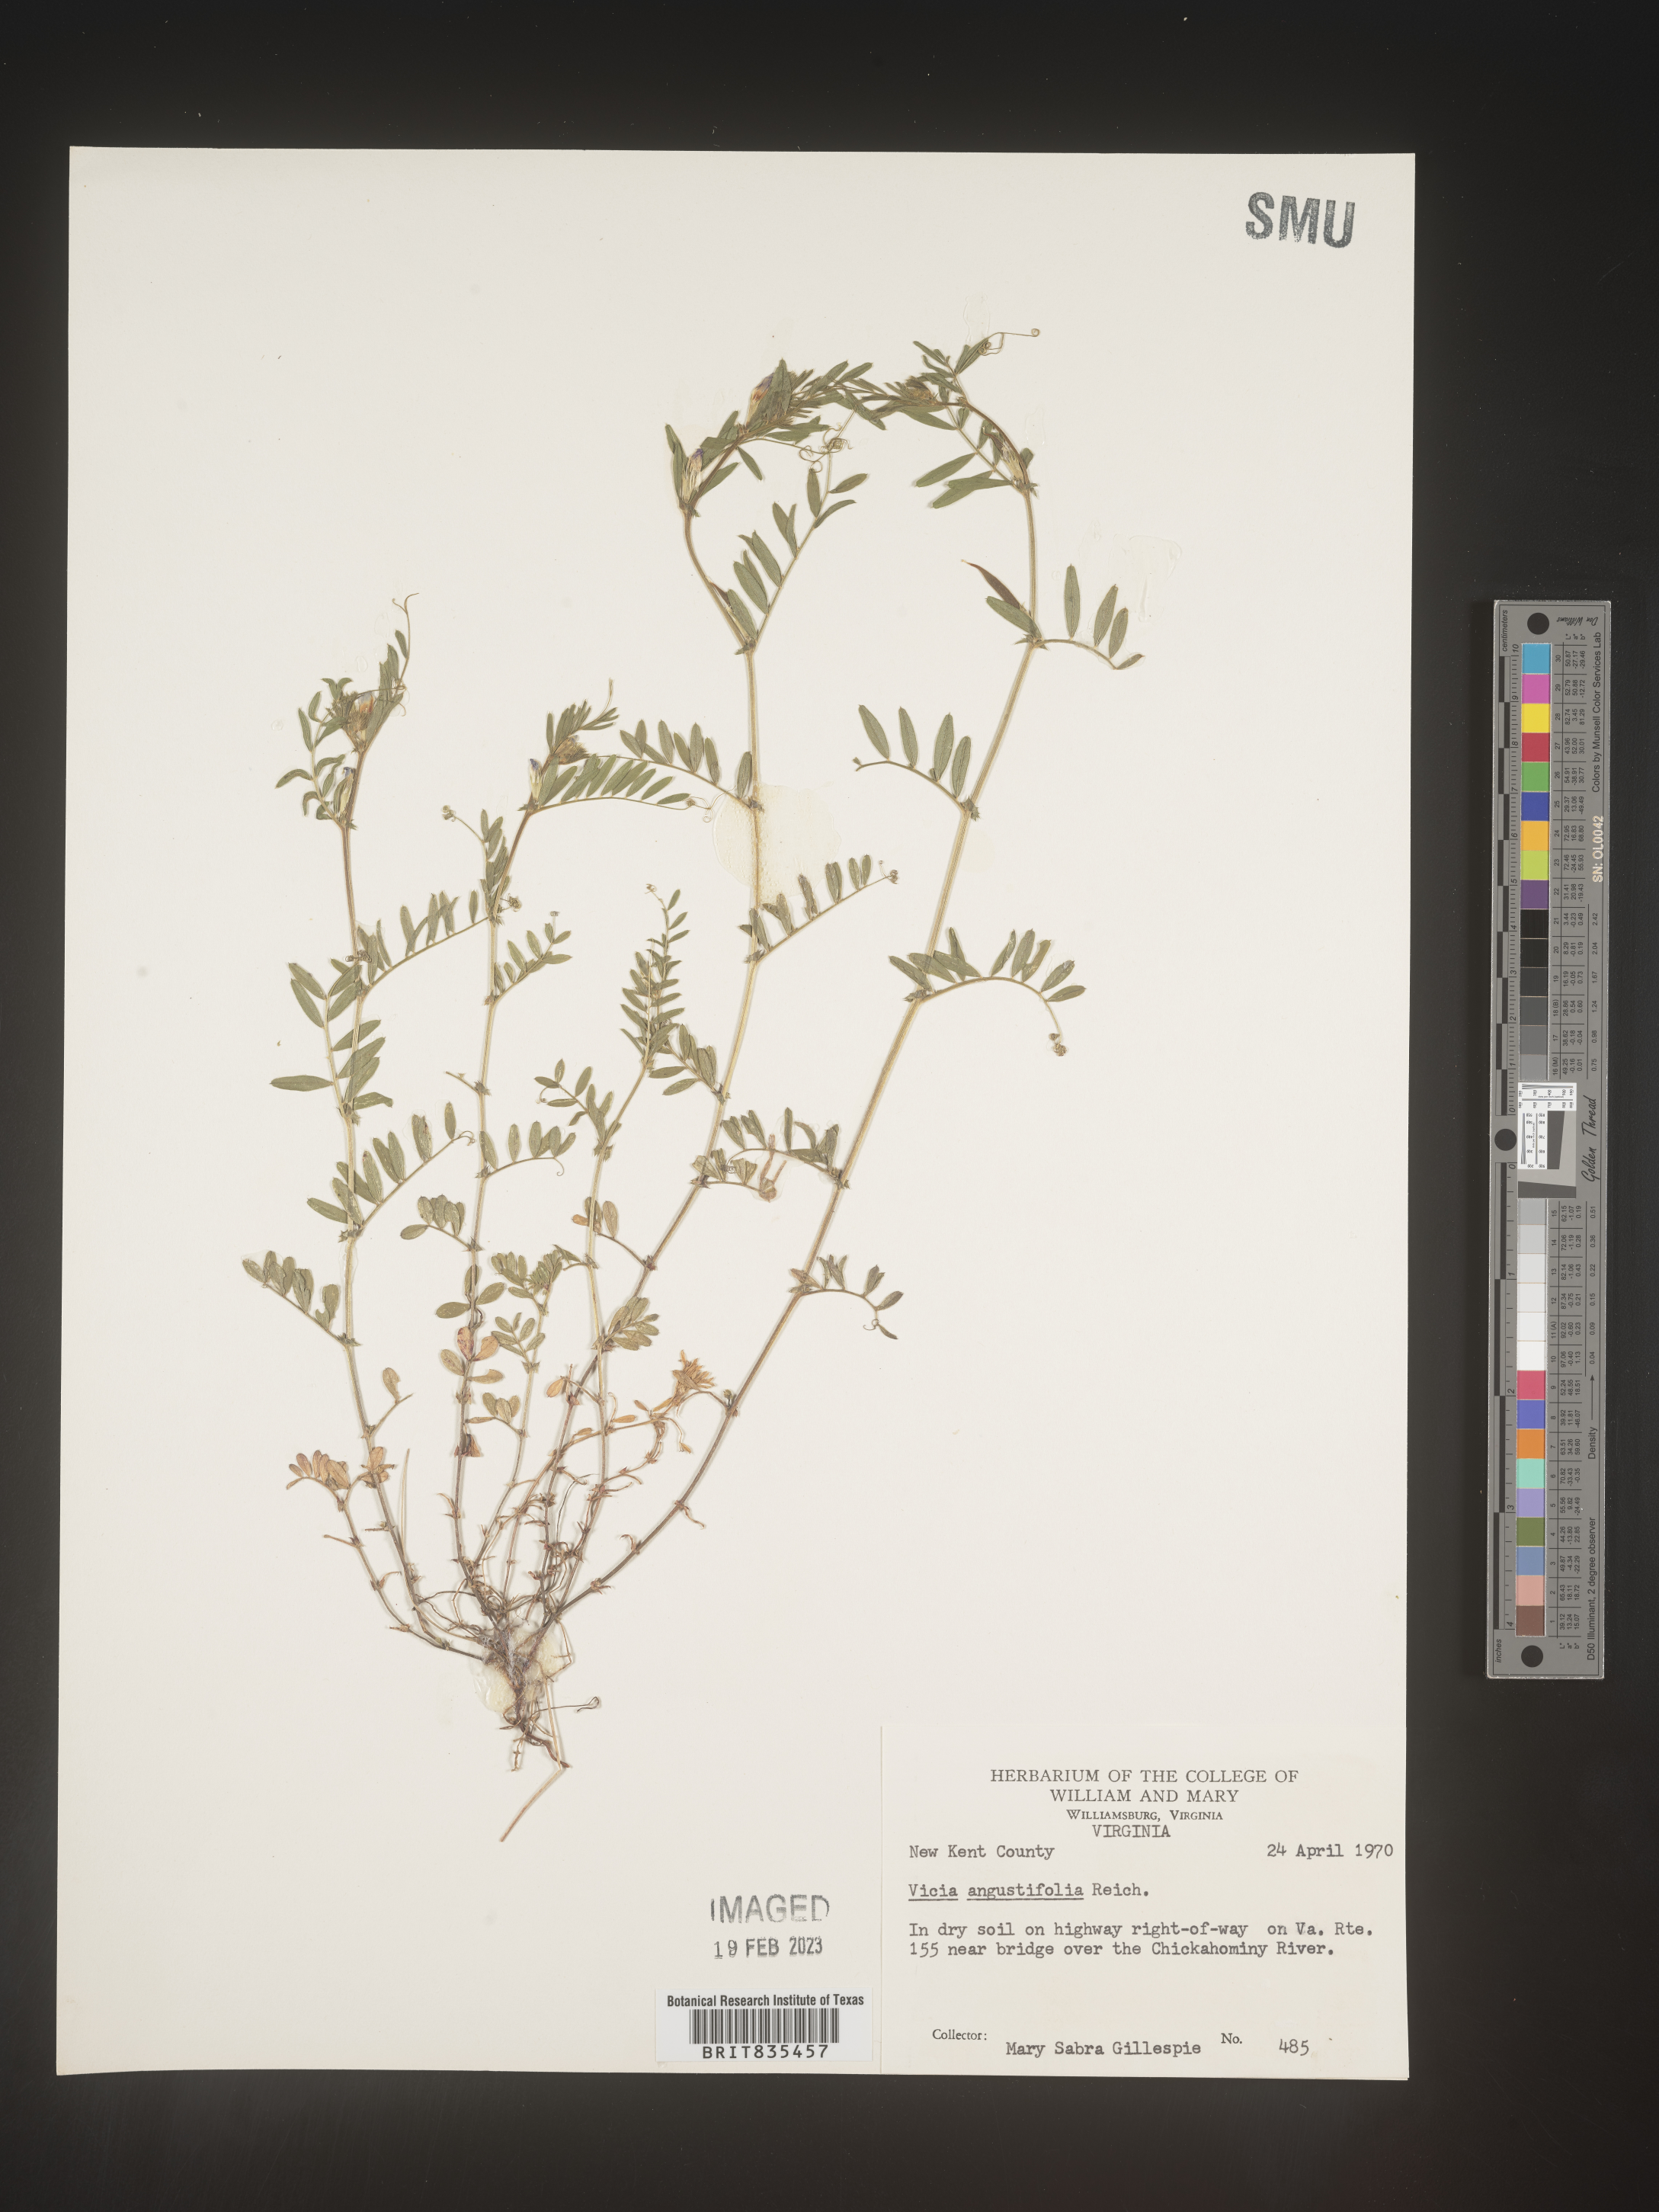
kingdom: Plantae
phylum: Tracheophyta
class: Magnoliopsida
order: Fabales
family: Fabaceae
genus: Vicia
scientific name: Vicia sativa
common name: Garden vetch
